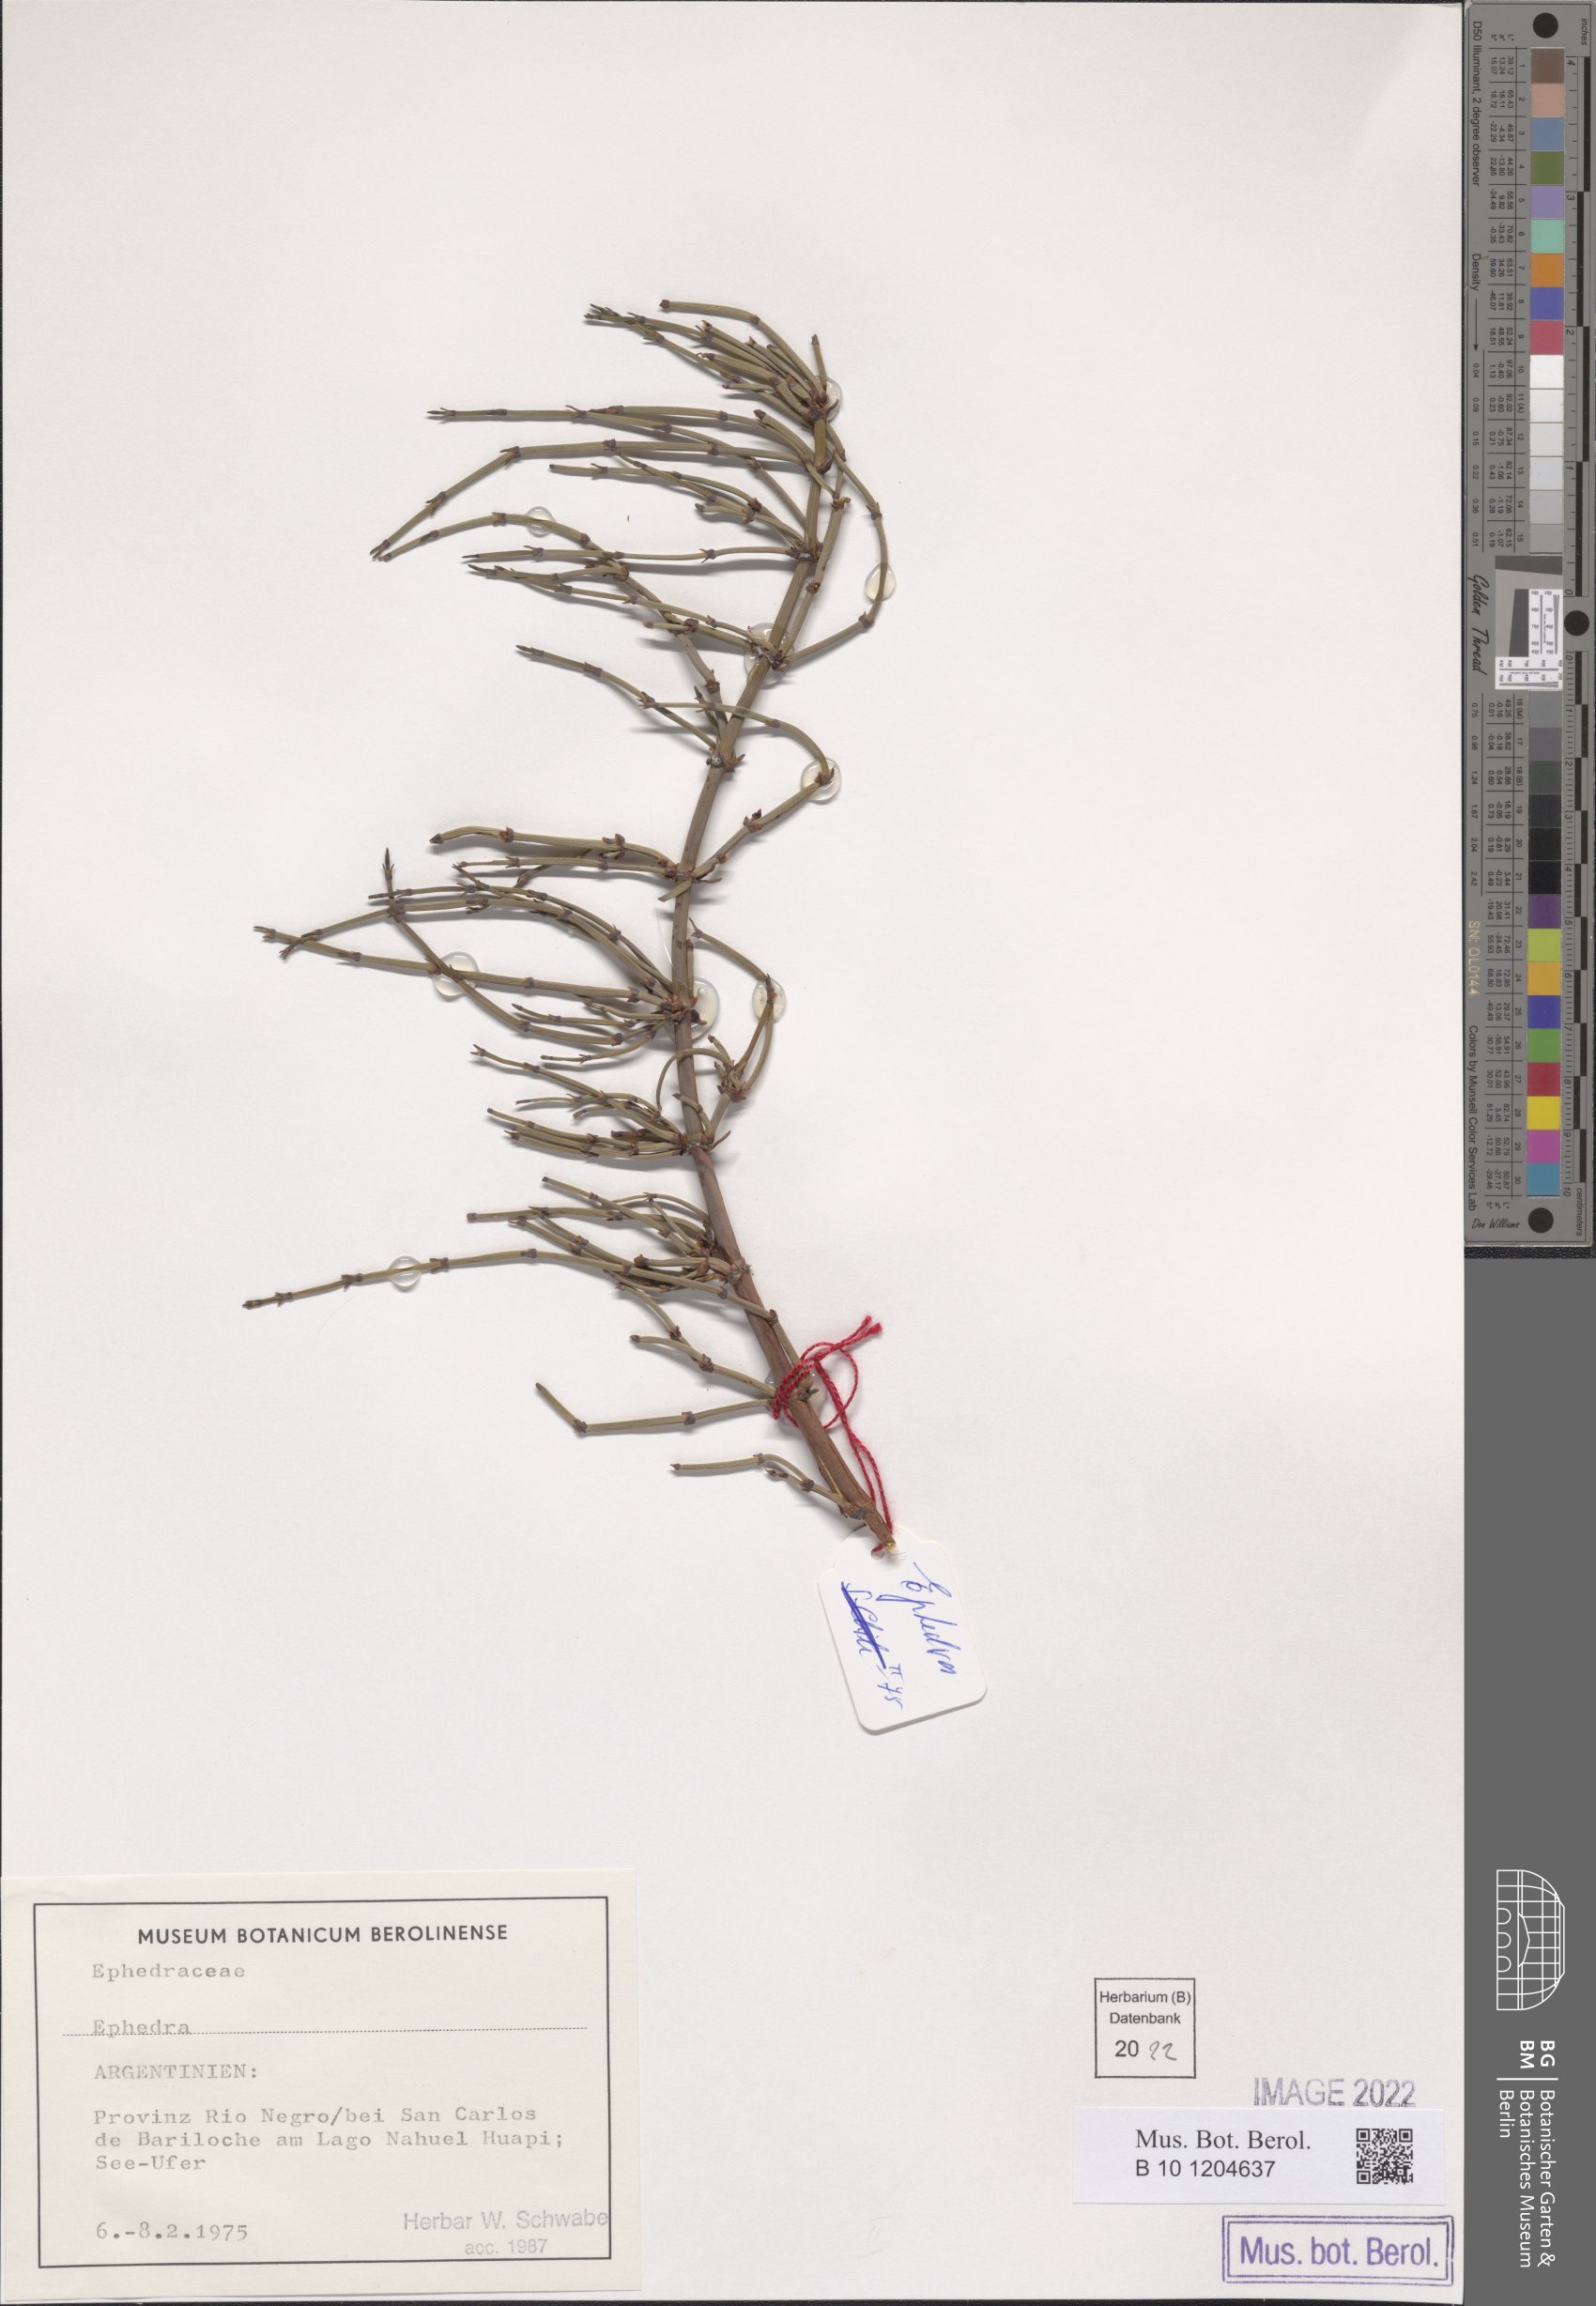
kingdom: Plantae
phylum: Tracheophyta
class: Gnetopsida
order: Ephedrales
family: Ephedraceae
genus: Ephedra
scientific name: Ephedra
